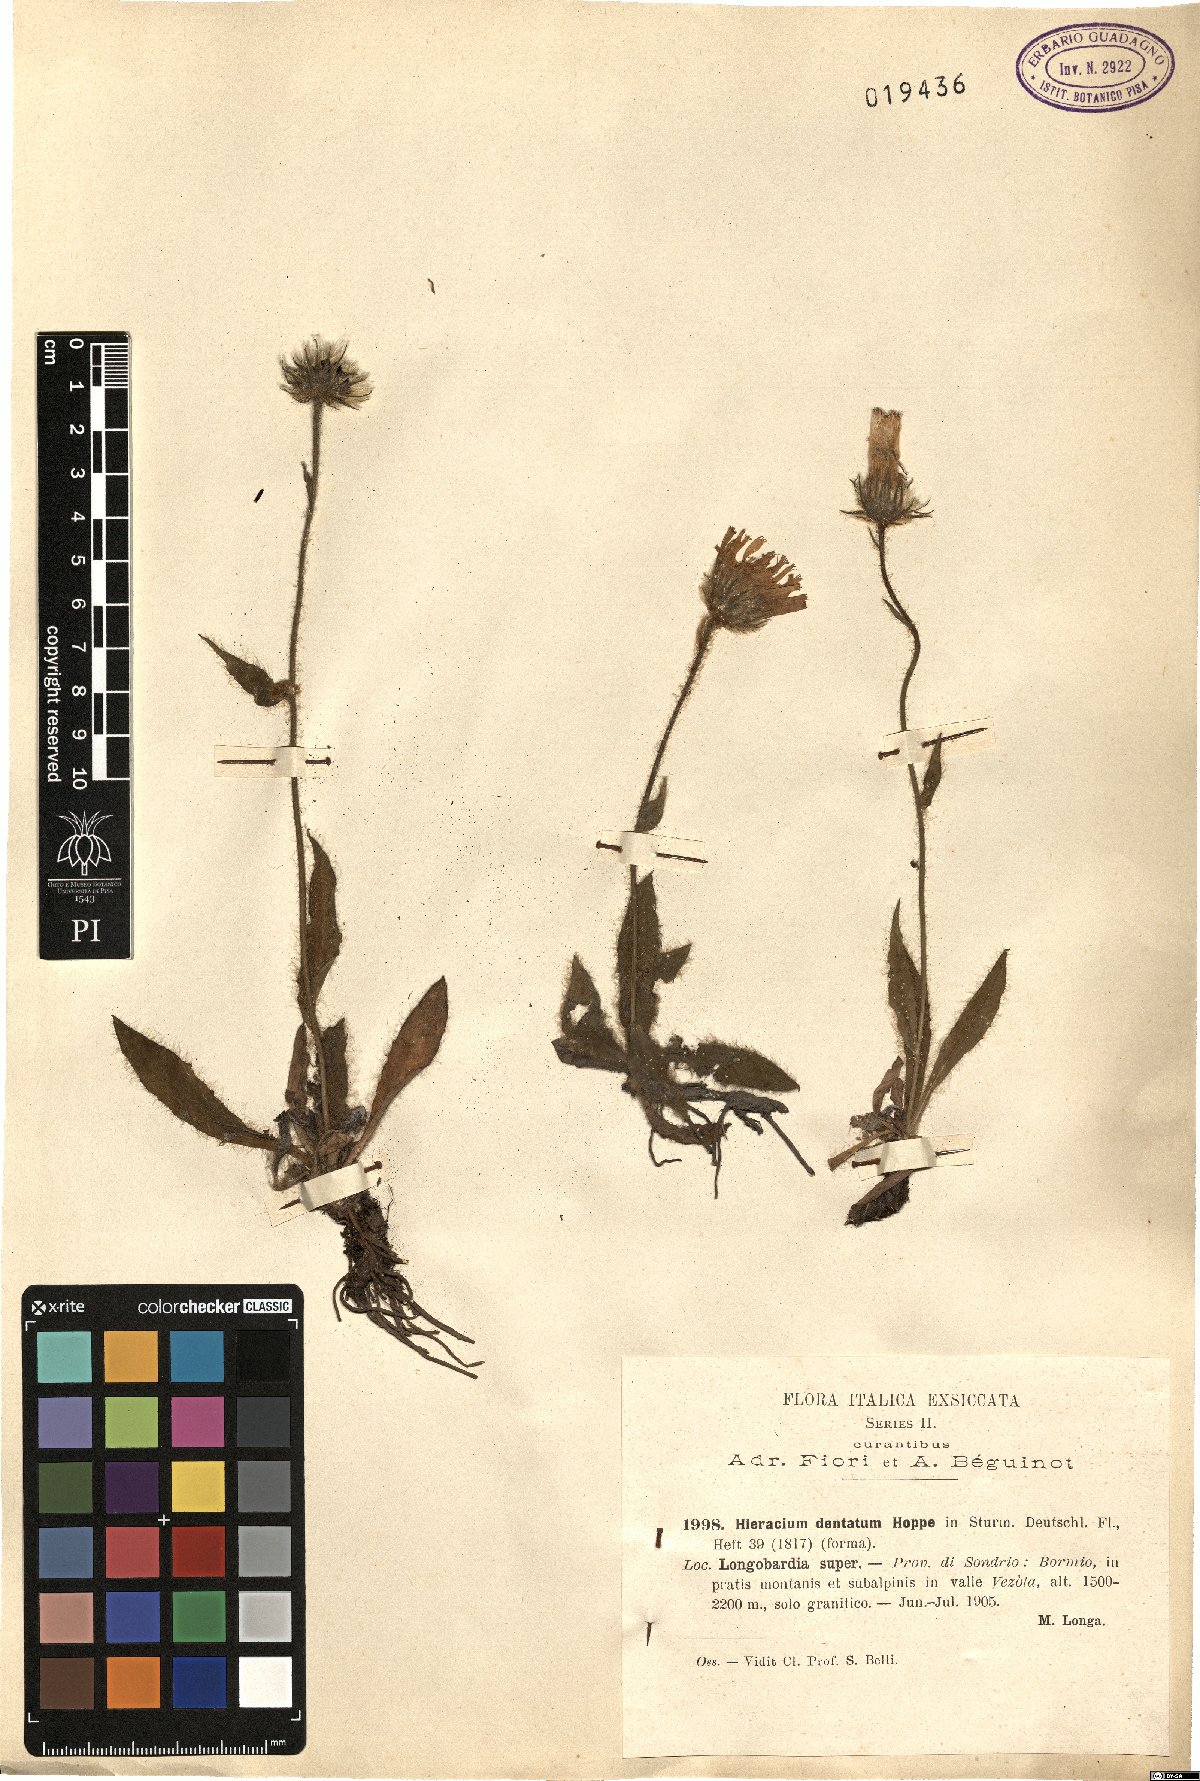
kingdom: Plantae
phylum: Tracheophyta
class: Magnoliopsida
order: Asterales
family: Asteraceae
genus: Hieracium
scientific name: Hieracium dentatum
